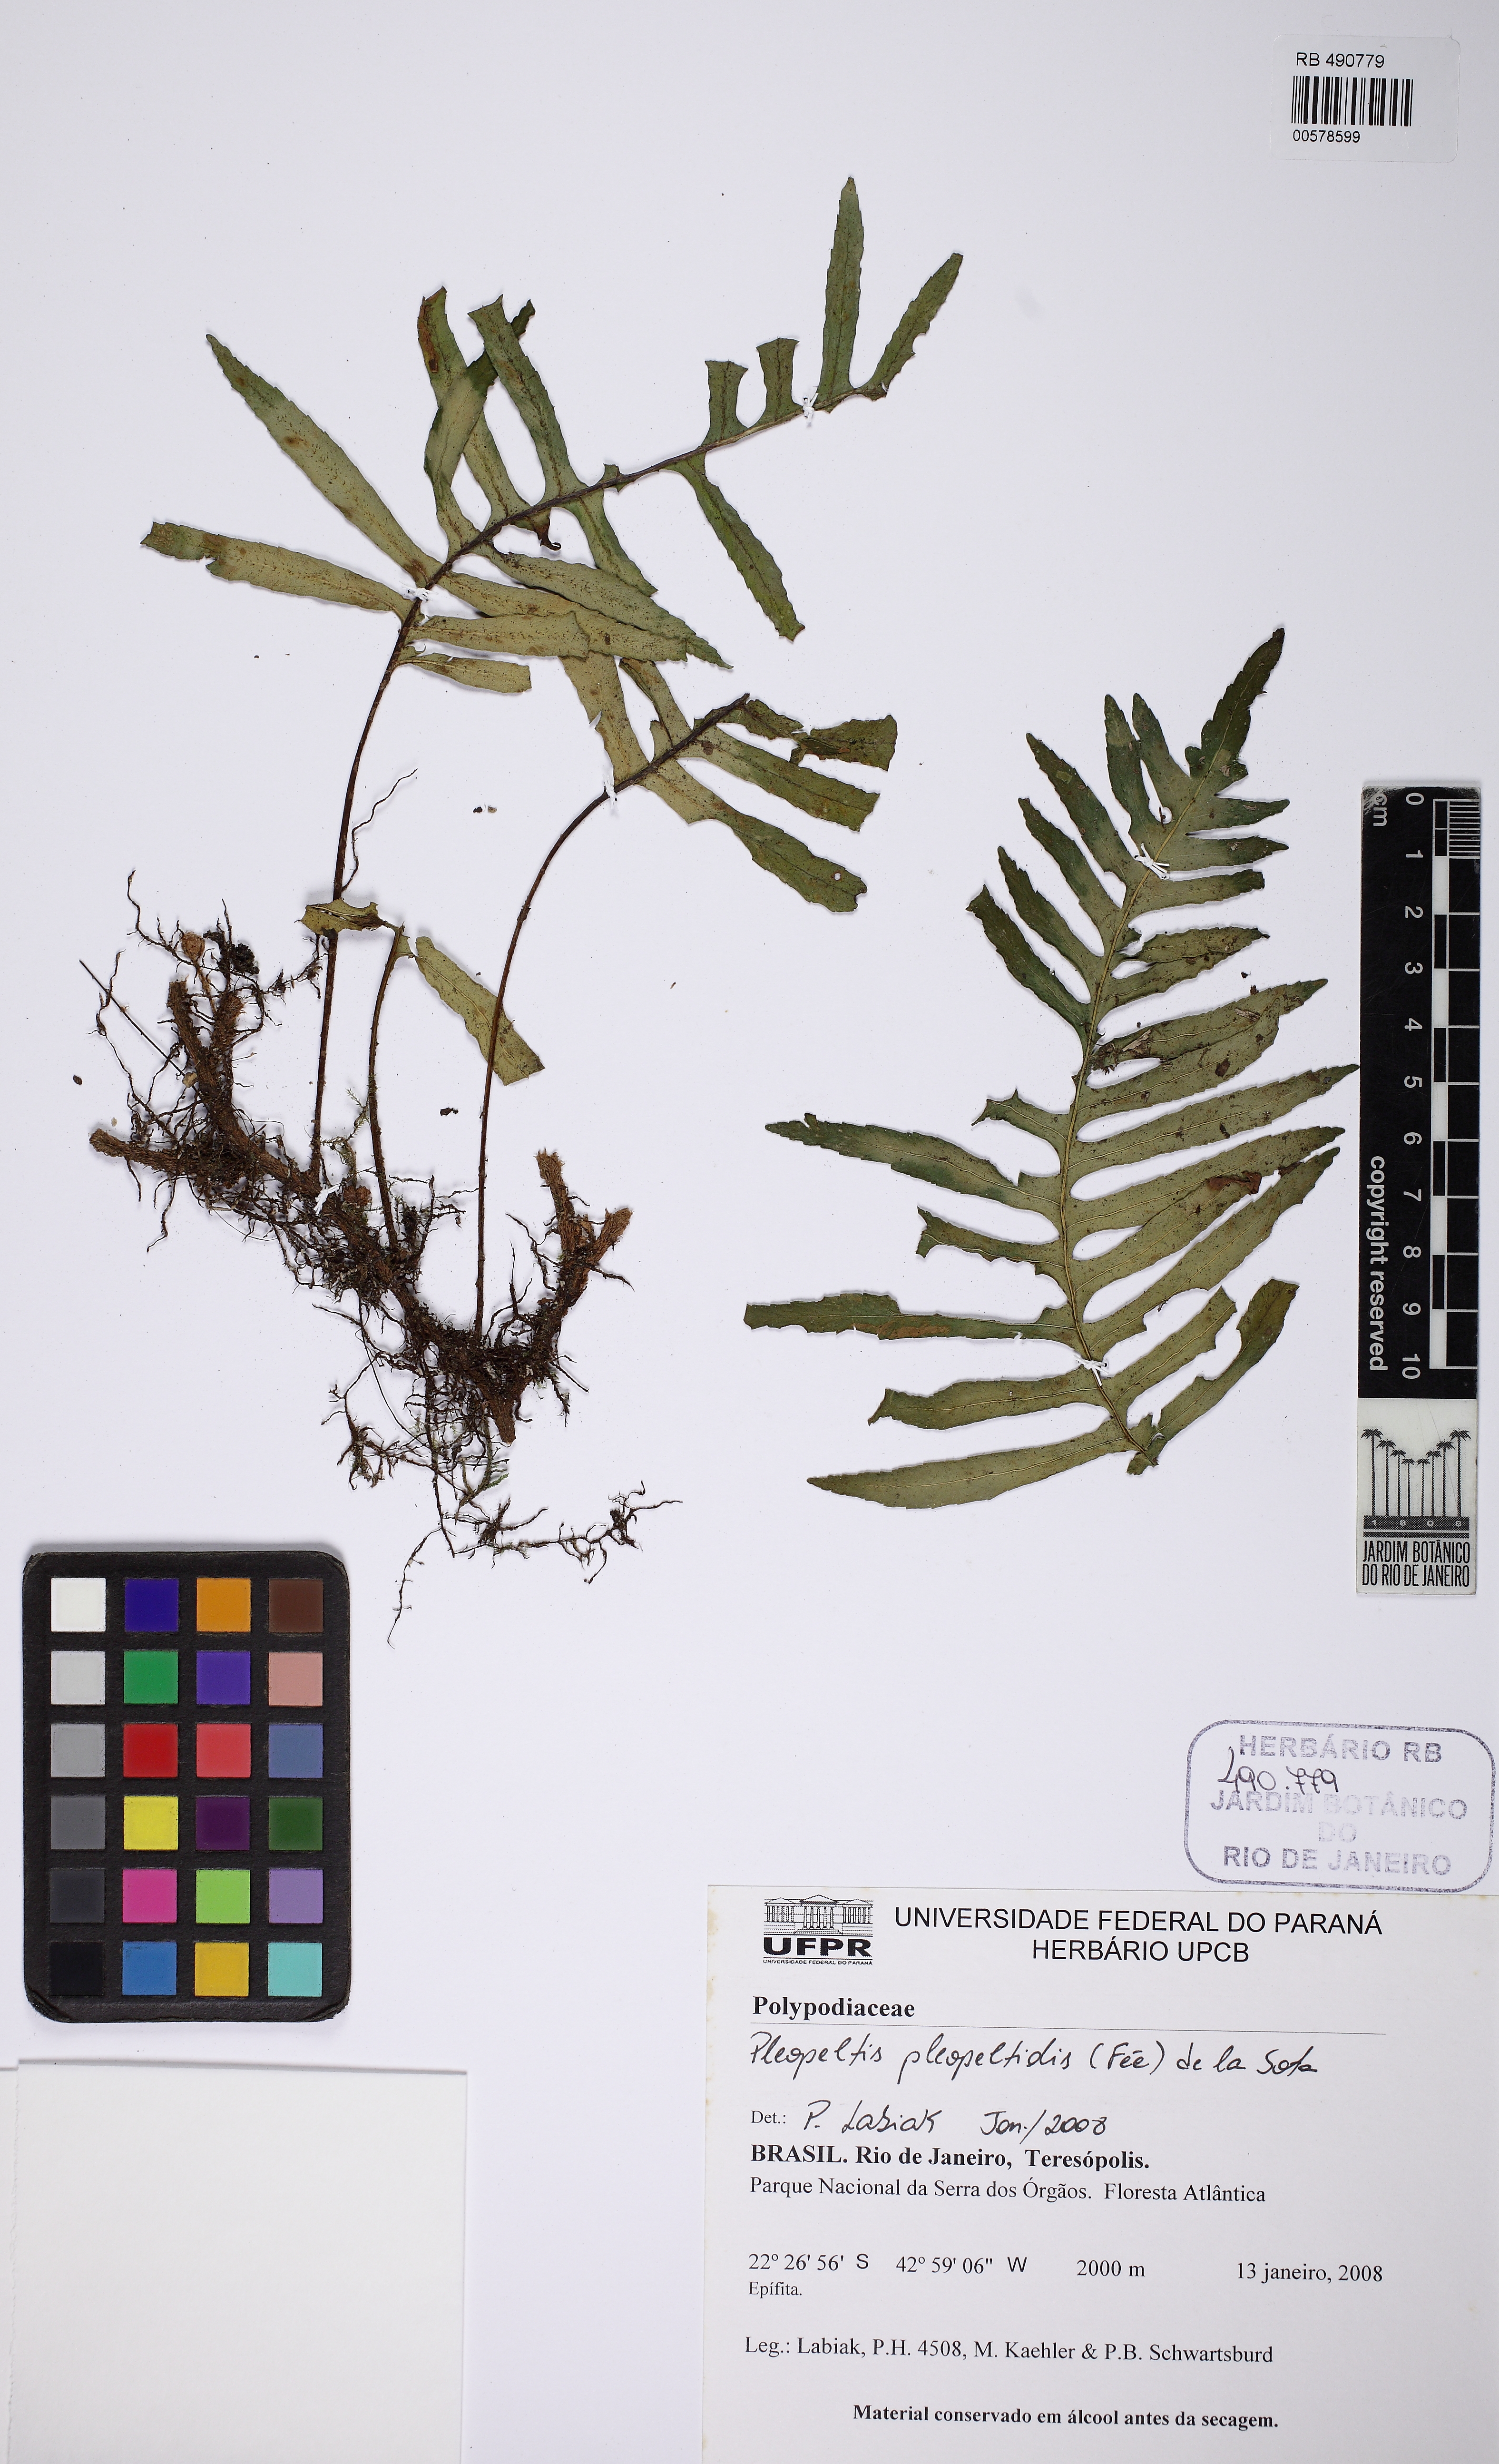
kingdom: Plantae
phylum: Tracheophyta
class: Polypodiopsida
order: Polypodiales
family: Polypodiaceae
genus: Pleopeltis
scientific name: Pleopeltis pleopeltidis
